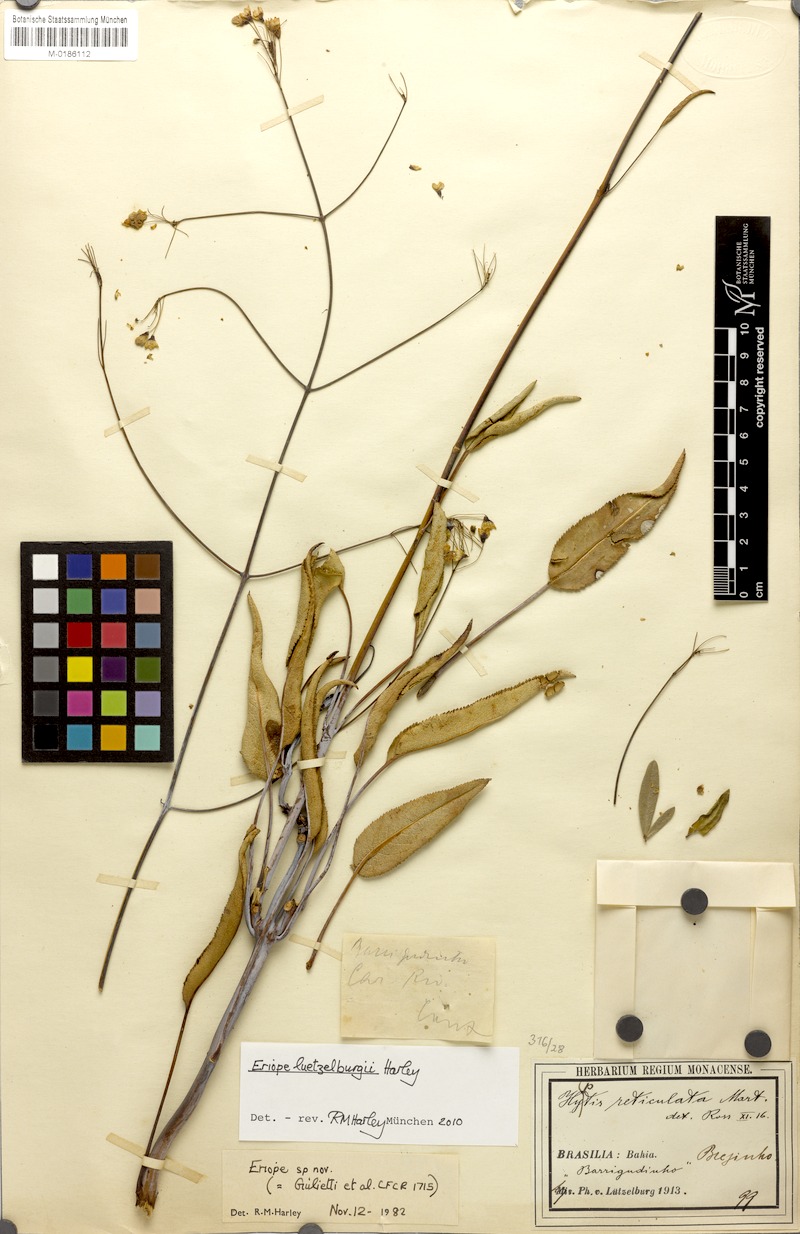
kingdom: Plantae
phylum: Tracheophyta
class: Magnoliopsida
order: Lamiales
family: Lamiaceae
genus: Eriope
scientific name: Eriope luetzelburgii
